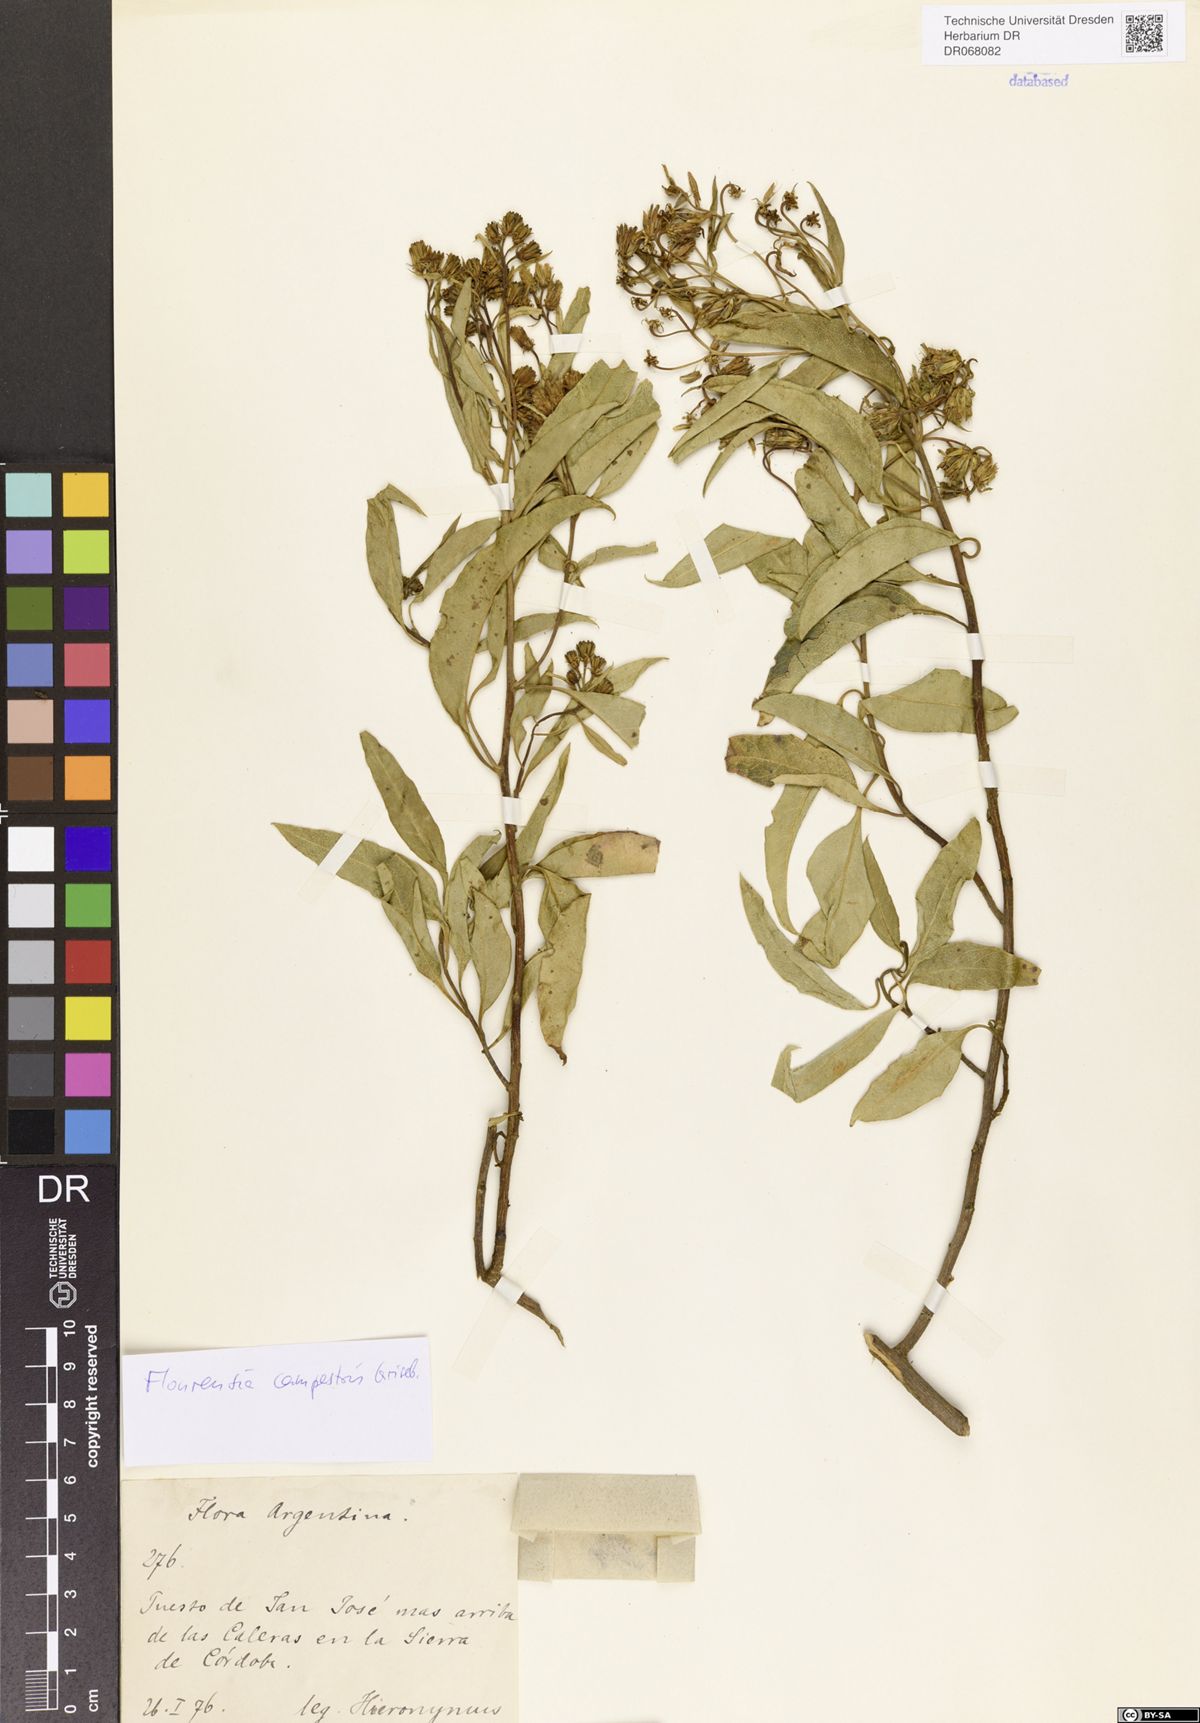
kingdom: Plantae
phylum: Tracheophyta
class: Magnoliopsida
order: Asterales
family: Asteraceae
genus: Flourensia
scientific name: Flourensia campestris
